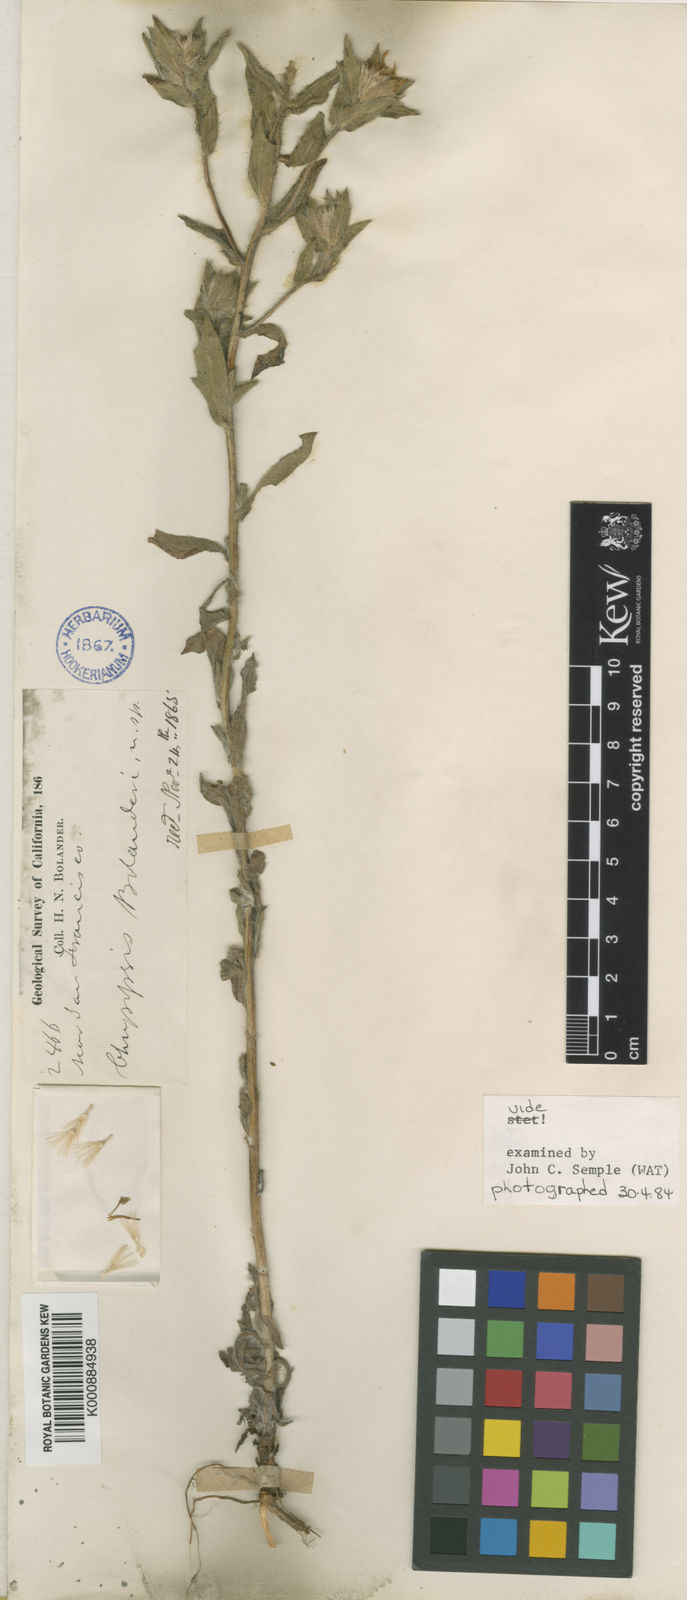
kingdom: Plantae
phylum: Tracheophyta
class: Magnoliopsida
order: Asterales
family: Asteraceae
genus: Heterotheca
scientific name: Heterotheca villosa
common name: Hairy false goldenaster
